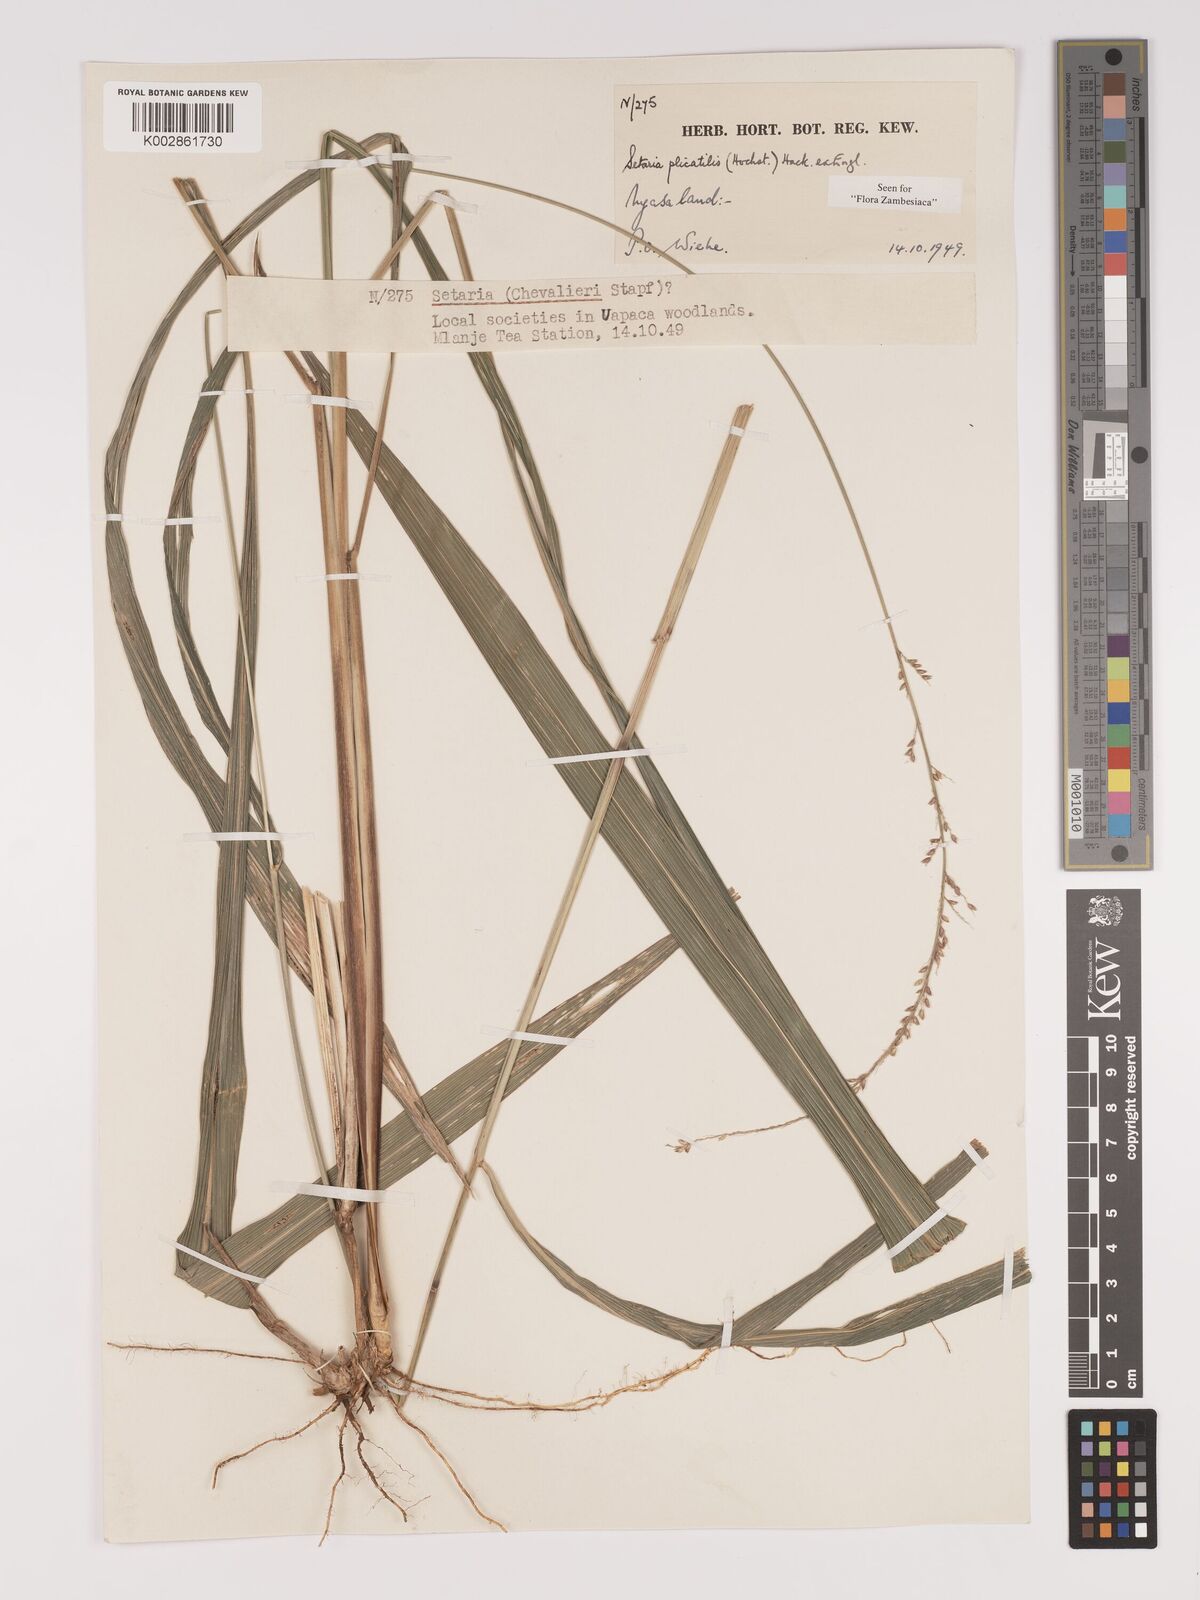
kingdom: Plantae
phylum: Tracheophyta
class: Liliopsida
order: Poales
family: Poaceae
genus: Setaria
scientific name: Setaria megaphylla
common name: Bigleaf bristlegrass
